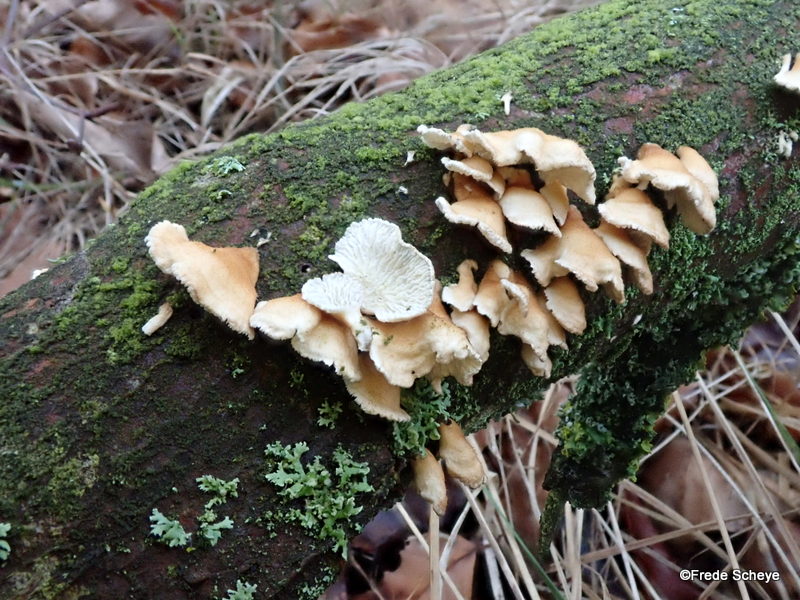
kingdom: Fungi
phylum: Basidiomycota
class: Agaricomycetes
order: Amylocorticiales
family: Amylocorticiaceae
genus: Plicaturopsis
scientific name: Plicaturopsis crispa
